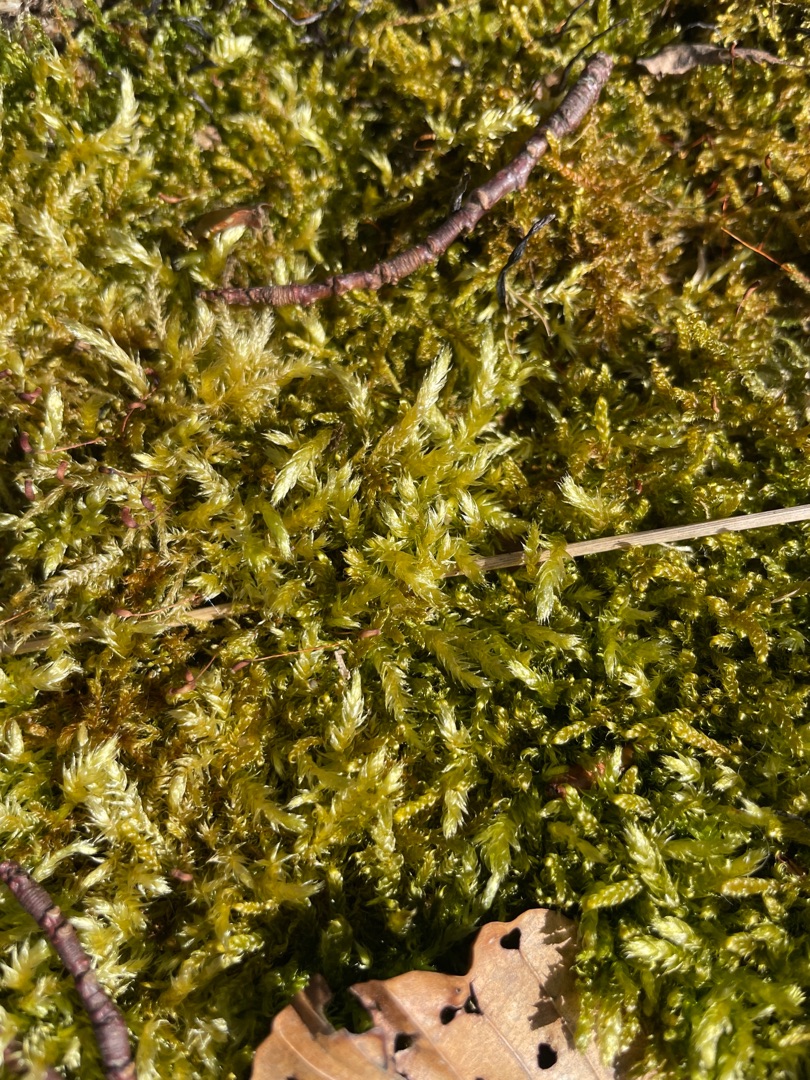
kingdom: Plantae
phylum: Bryophyta
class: Bryopsida
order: Hypnales
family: Brachytheciaceae
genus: Brachythecium
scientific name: Brachythecium rutabulum
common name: Almindelig kortkapsel
